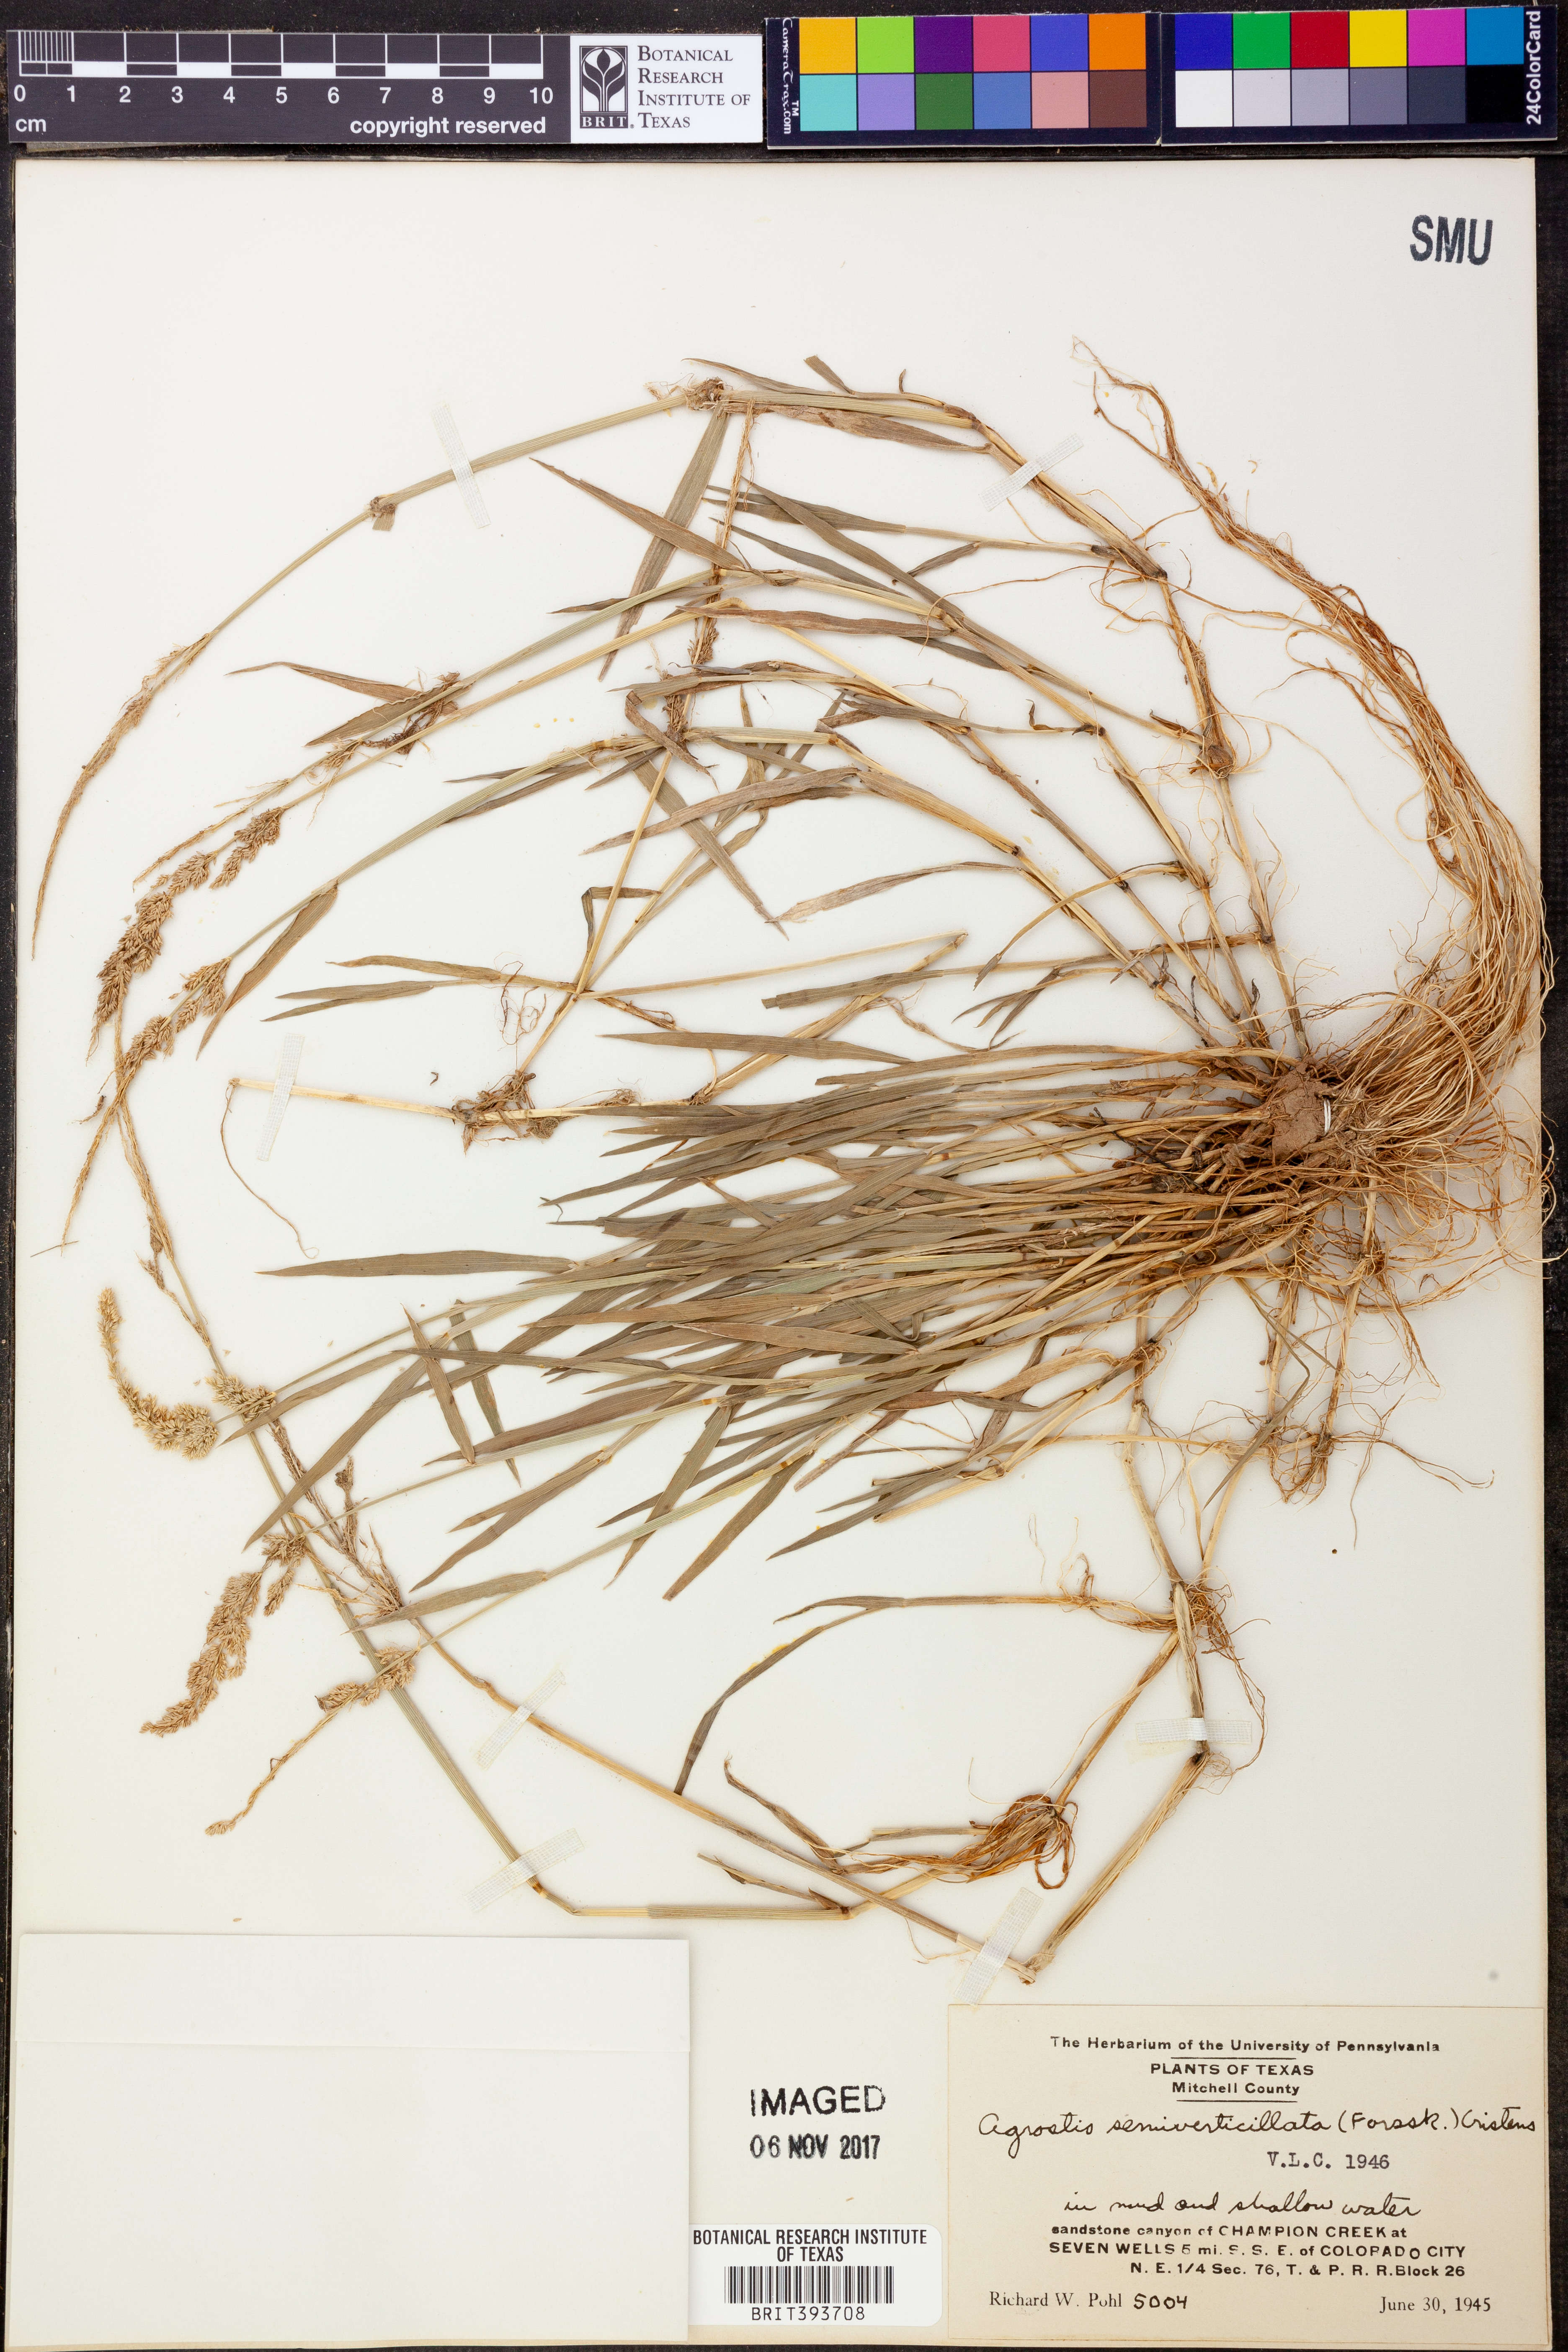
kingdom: Plantae
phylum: Tracheophyta
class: Liliopsida
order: Poales
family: Poaceae
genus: Polypogon
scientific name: Polypogon viridis
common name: Water bent
